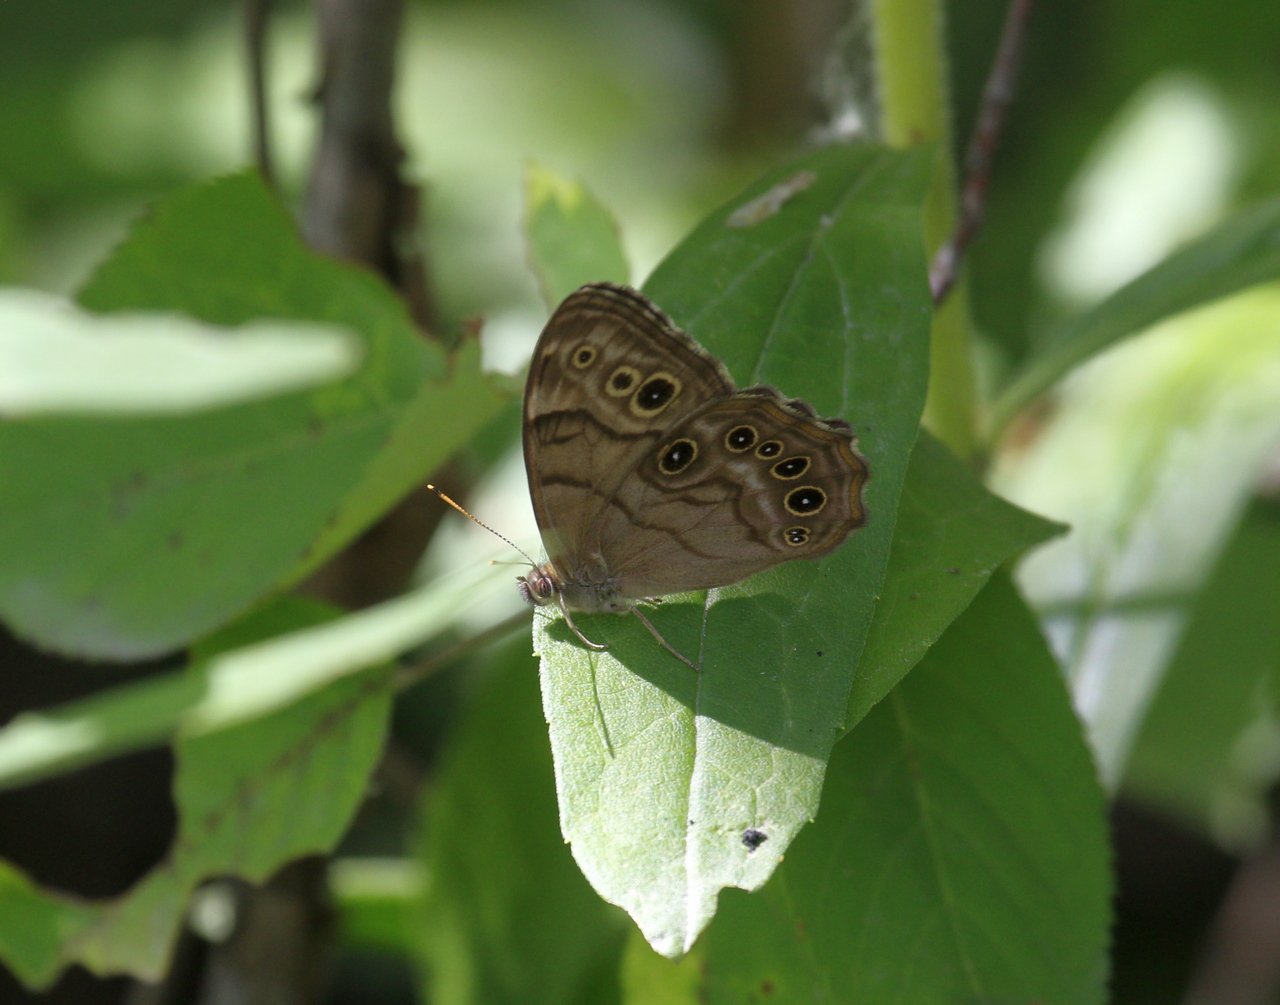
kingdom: Animalia
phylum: Arthropoda
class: Insecta
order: Lepidoptera
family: Nymphalidae
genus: Lethe
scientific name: Lethe anthedon
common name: Northern Pearly-Eye
